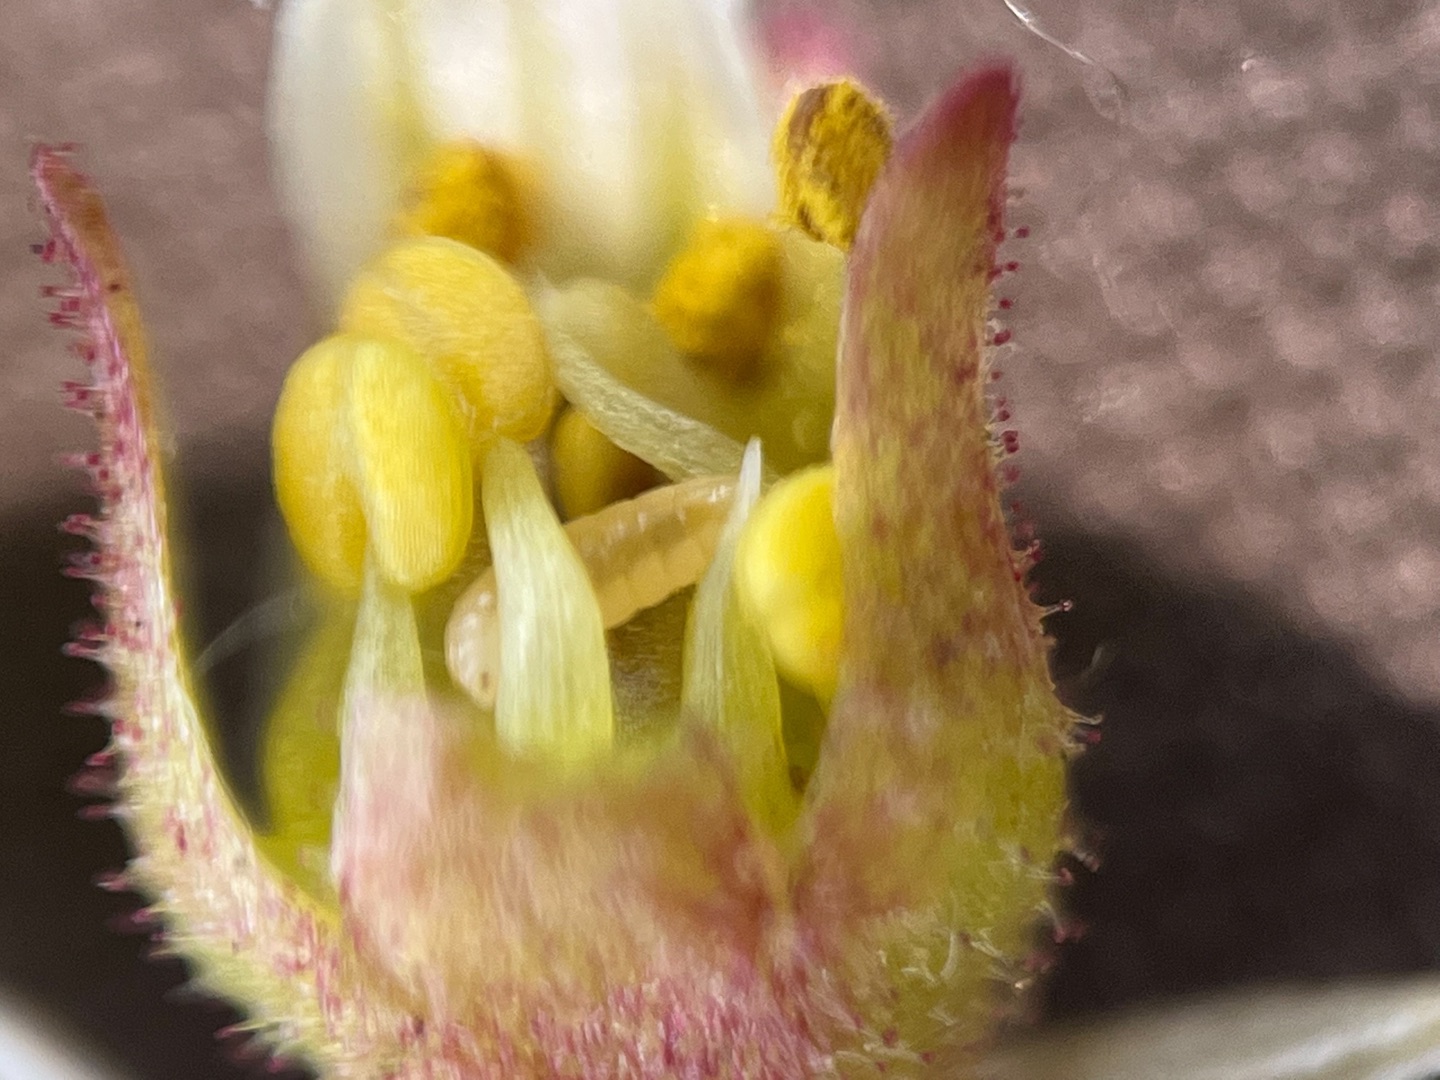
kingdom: Animalia
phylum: Arthropoda
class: Insecta
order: Diptera
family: Cecidomyiidae
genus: Dasineura
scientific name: Dasineura saxifragae
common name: Stenbrækgalmyg
